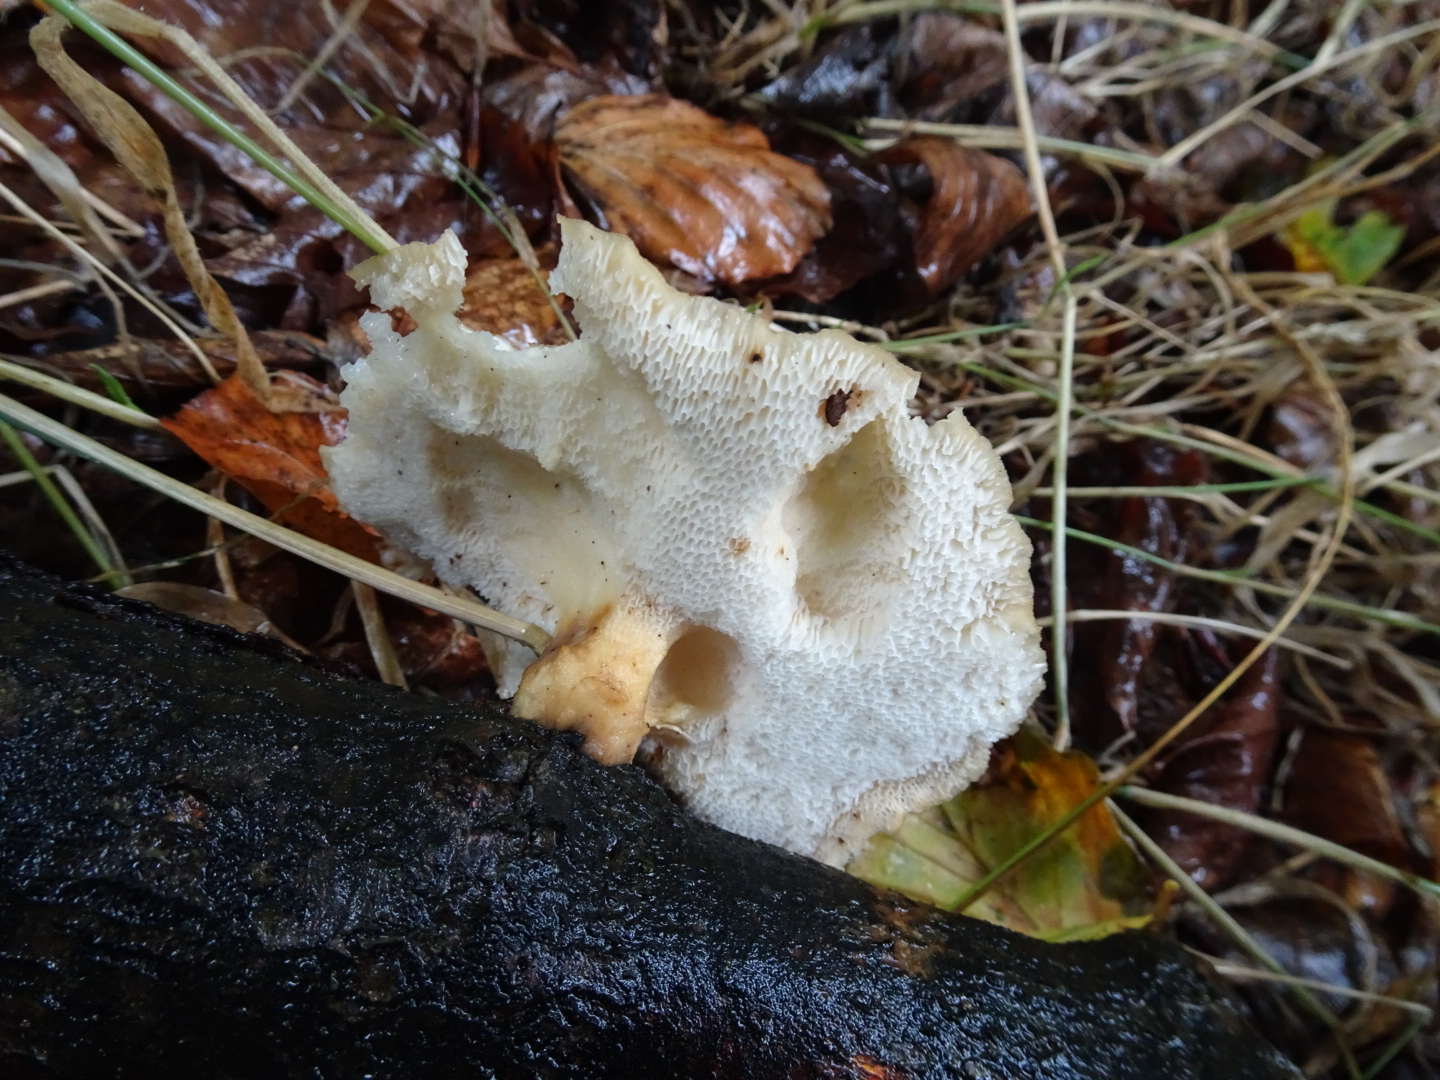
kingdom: Fungi
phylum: Basidiomycota
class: Agaricomycetes
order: Polyporales
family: Polyporaceae
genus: Polyporus
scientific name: Polyporus tuberaster
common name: knoldet stilkporesvamp
